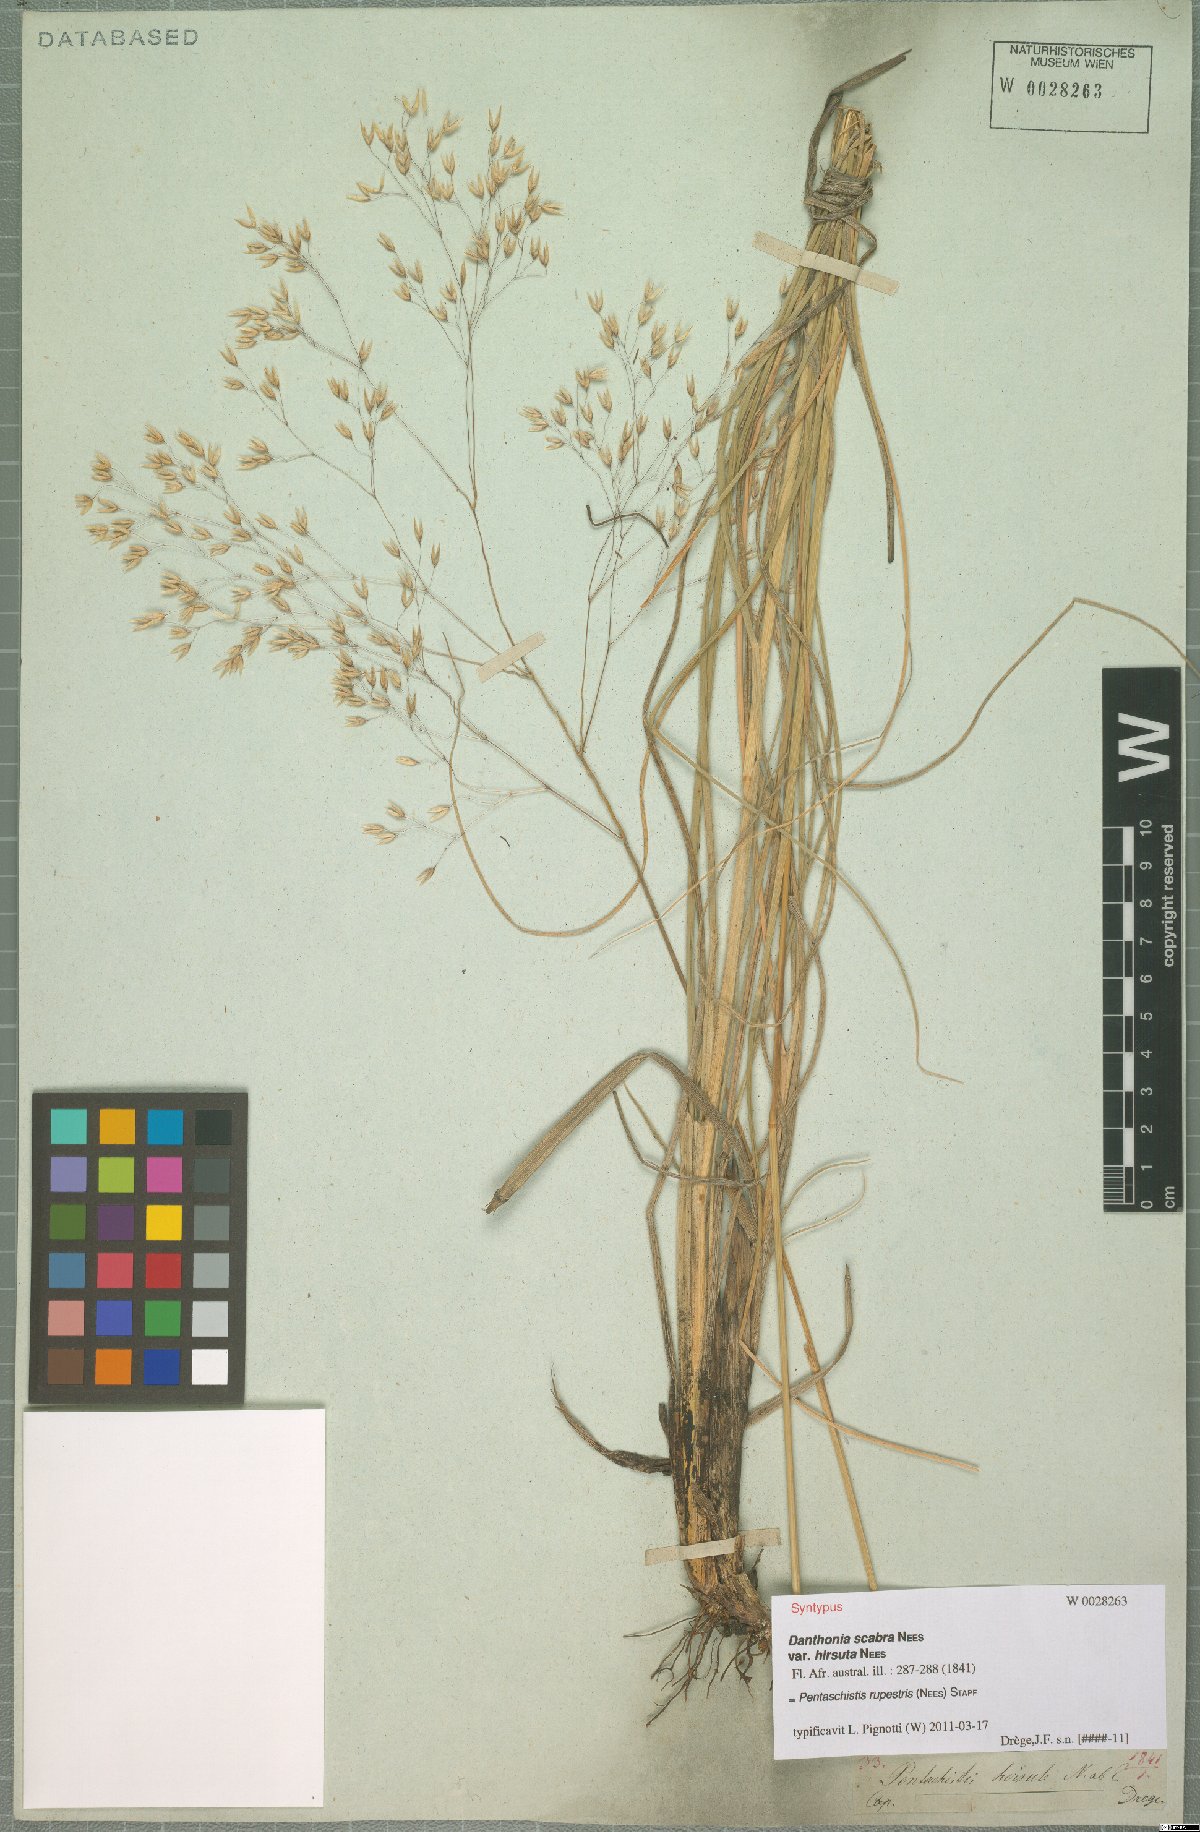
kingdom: Plantae
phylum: Tracheophyta
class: Liliopsida
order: Poales
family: Poaceae
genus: Pentameris
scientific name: Pentameris rupestris
